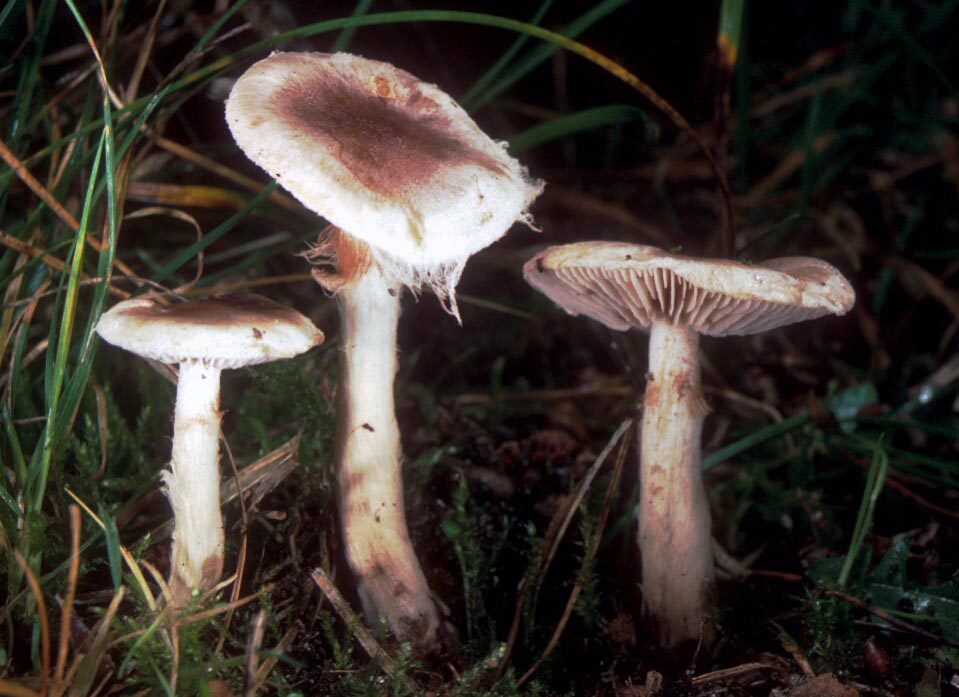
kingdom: Fungi
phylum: Basidiomycota
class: Agaricomycetes
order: Agaricales
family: Hymenogastraceae
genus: Hebeloma
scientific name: Hebeloma mesophaeum
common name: lerbrun tåreblad
